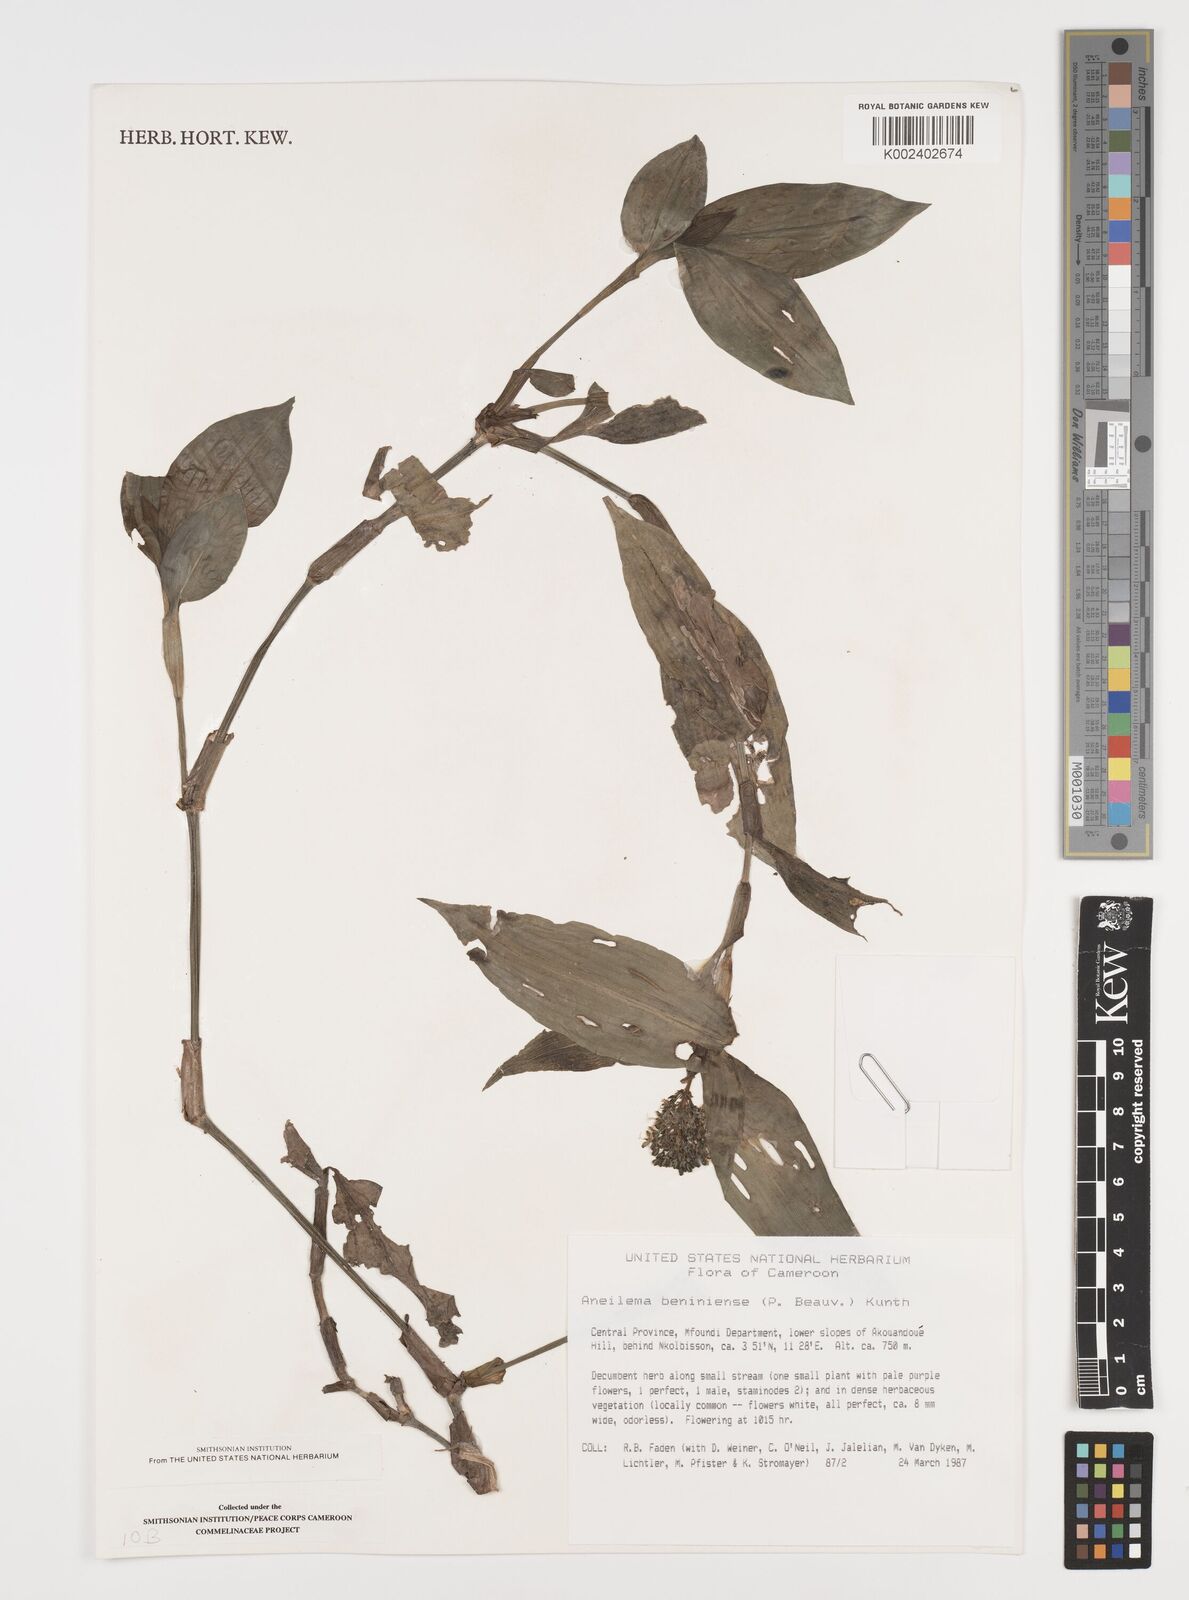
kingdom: Plantae
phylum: Tracheophyta
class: Liliopsida
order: Commelinales
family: Commelinaceae
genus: Aneilema
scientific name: Aneilema beniniense
